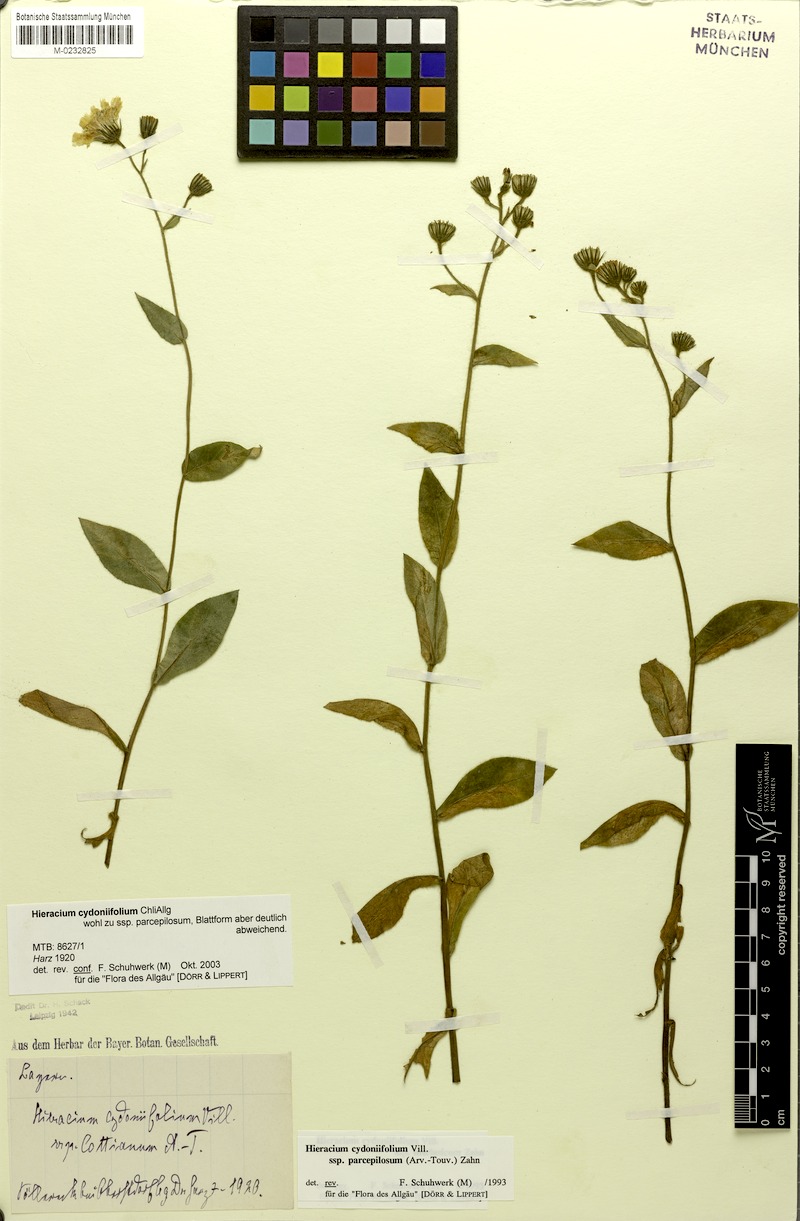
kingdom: Plantae
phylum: Tracheophyta
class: Magnoliopsida
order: Asterales
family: Asteraceae
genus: Hieracium
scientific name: Hieracium cydoniifolium
